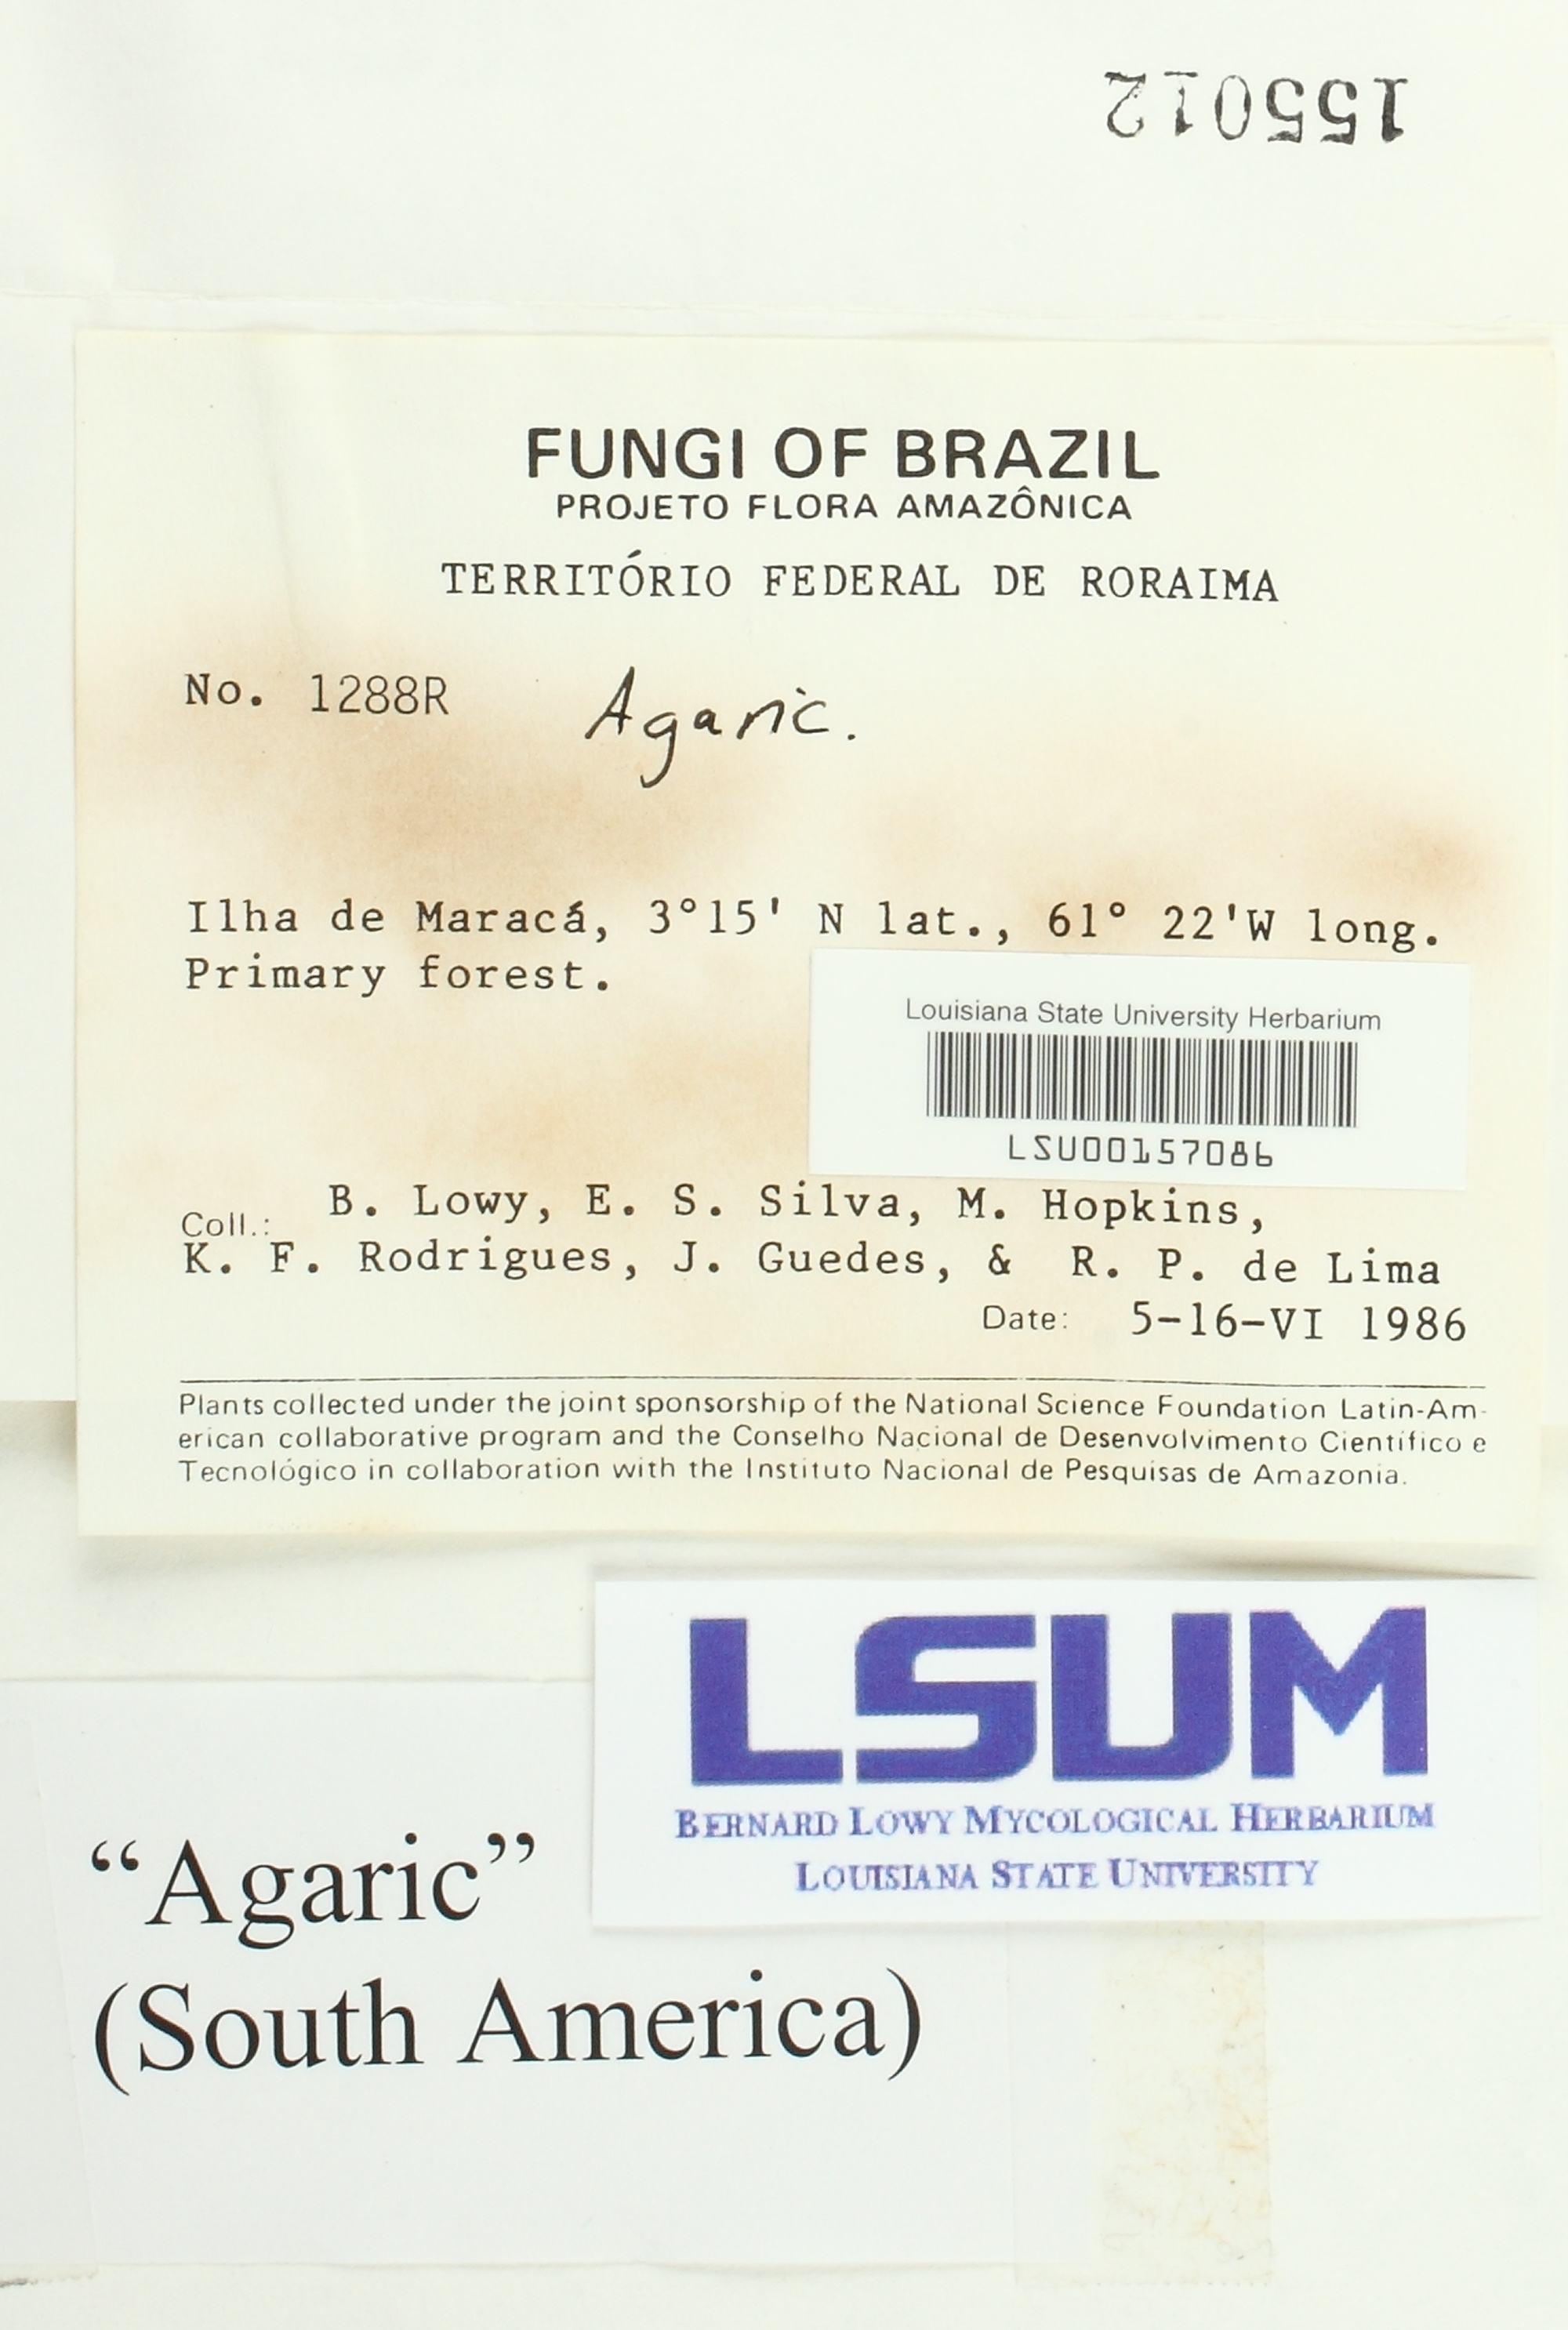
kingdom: Fungi
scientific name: Fungi
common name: Fungi
